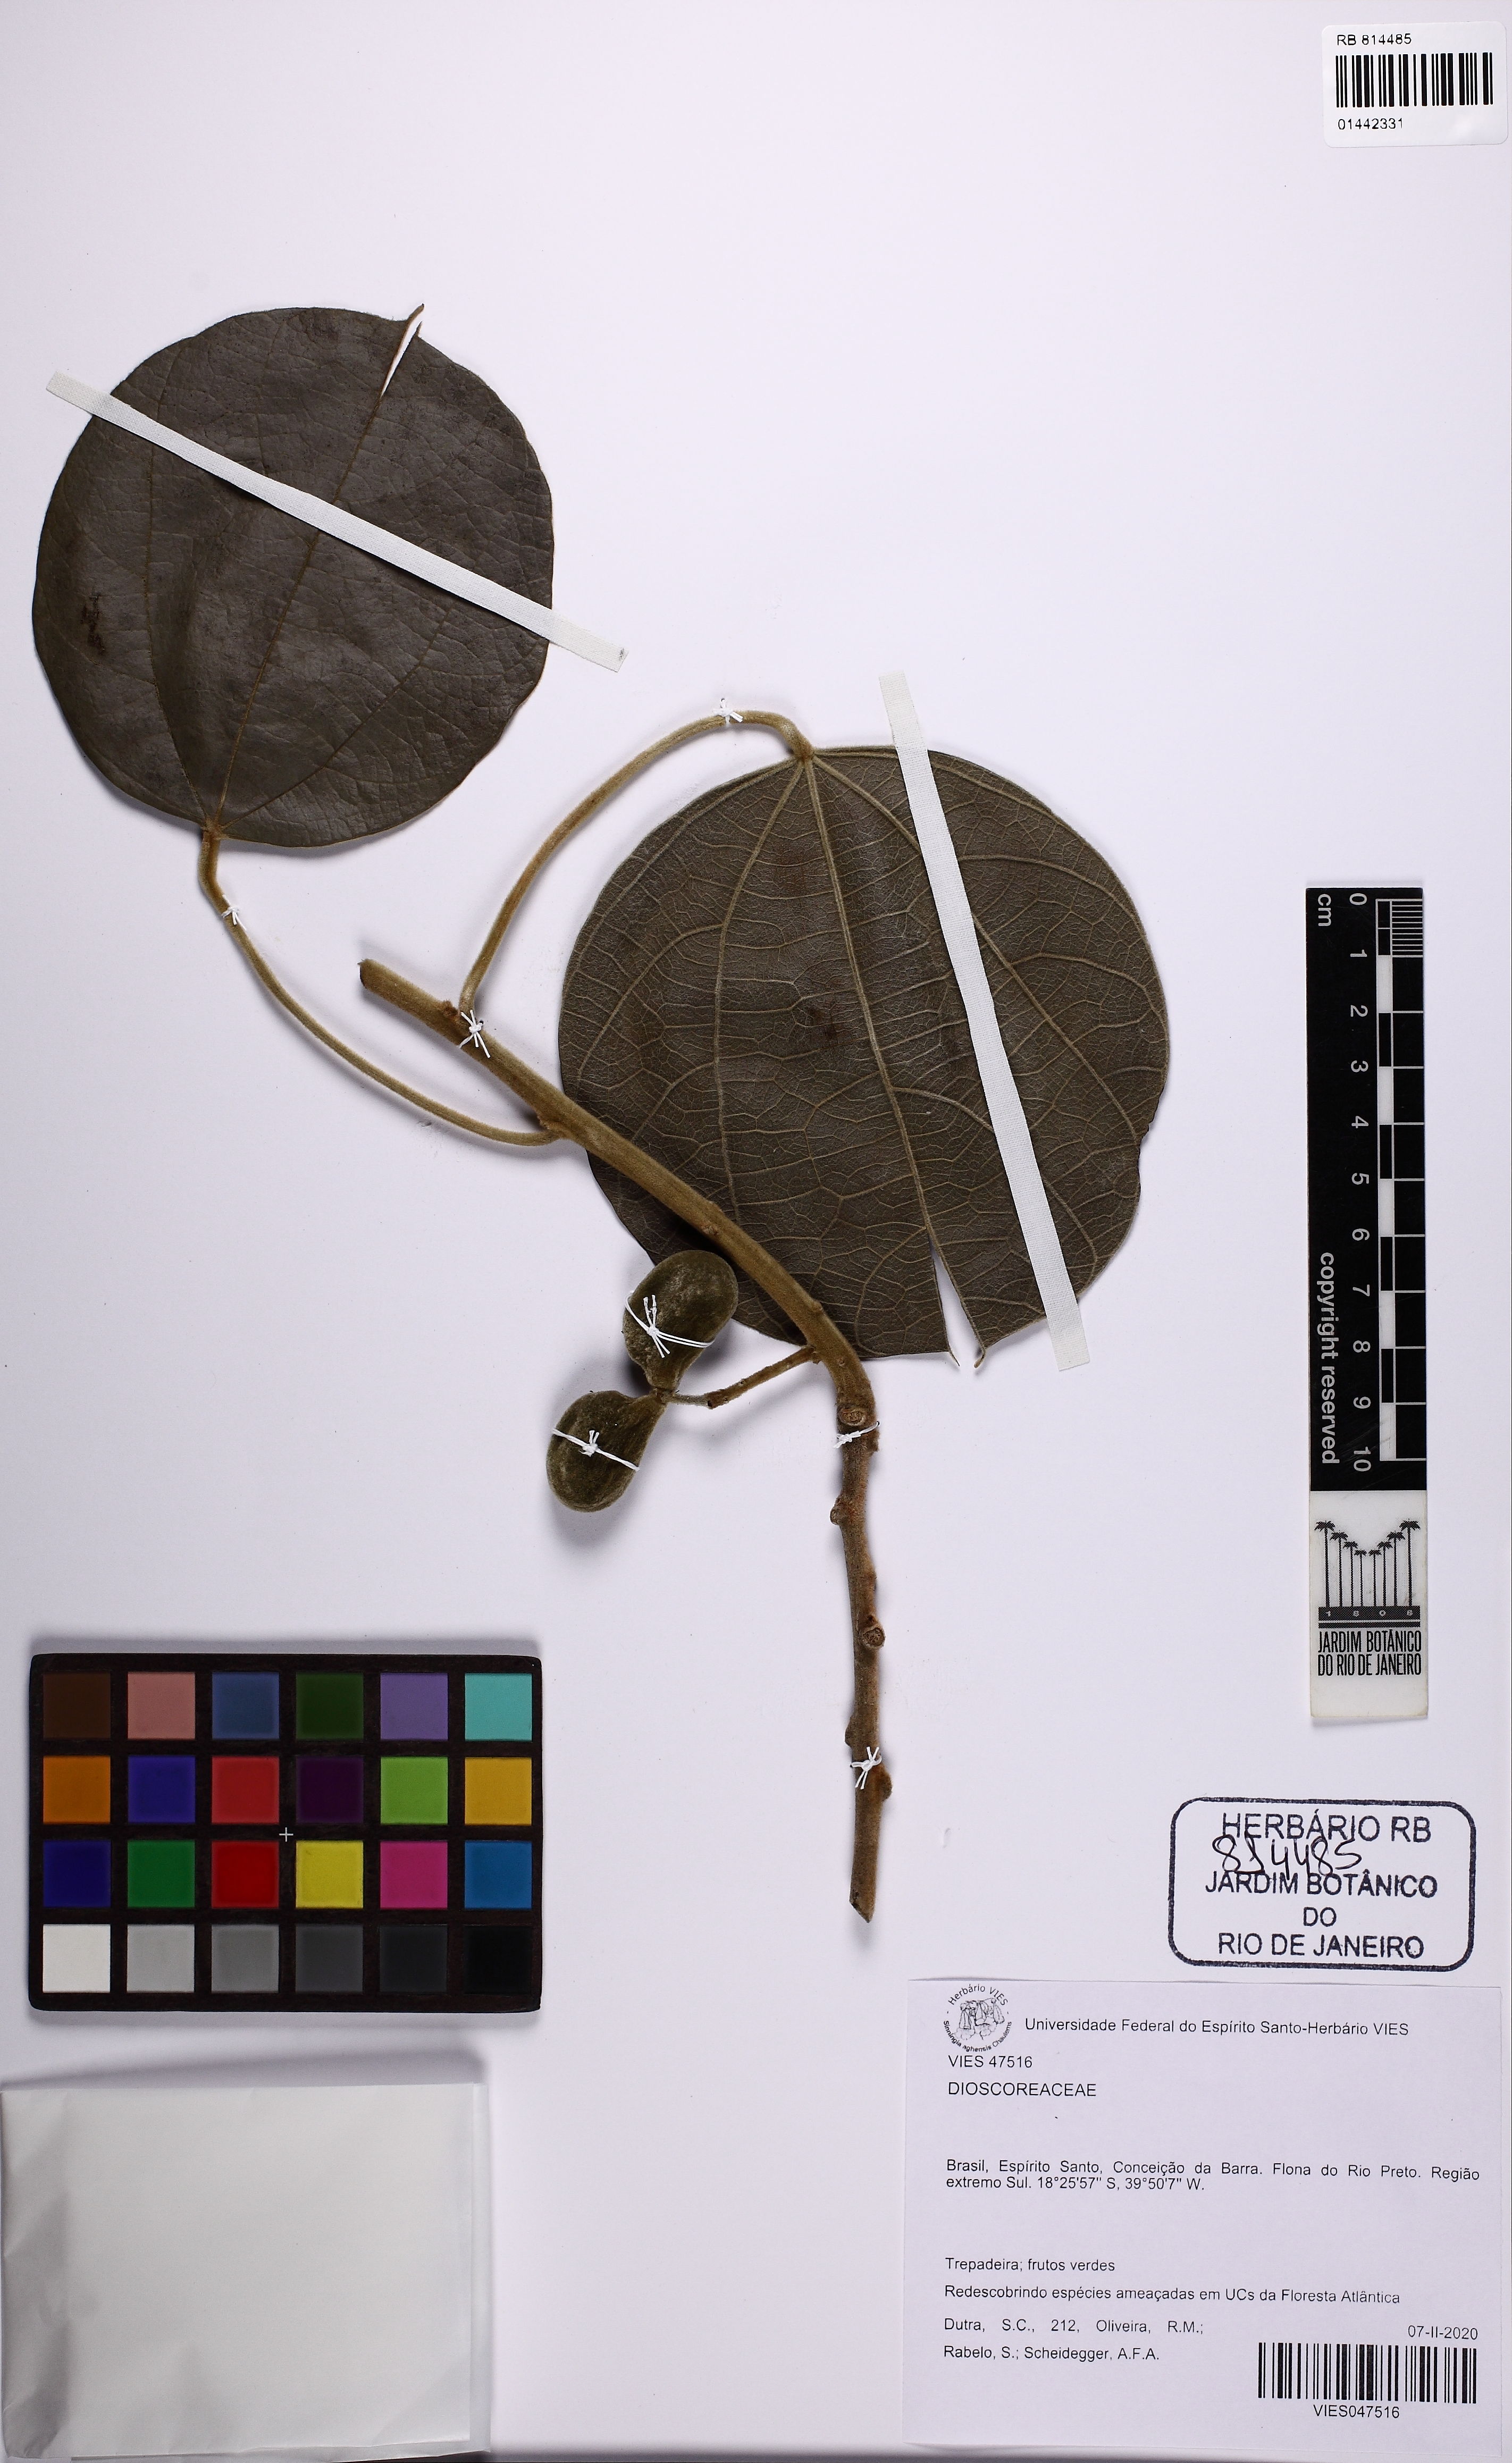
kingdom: Plantae
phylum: Tracheophyta
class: Magnoliopsida
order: Ranunculales
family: Menispermaceae
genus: Abuta
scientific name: Abuta rufescens
